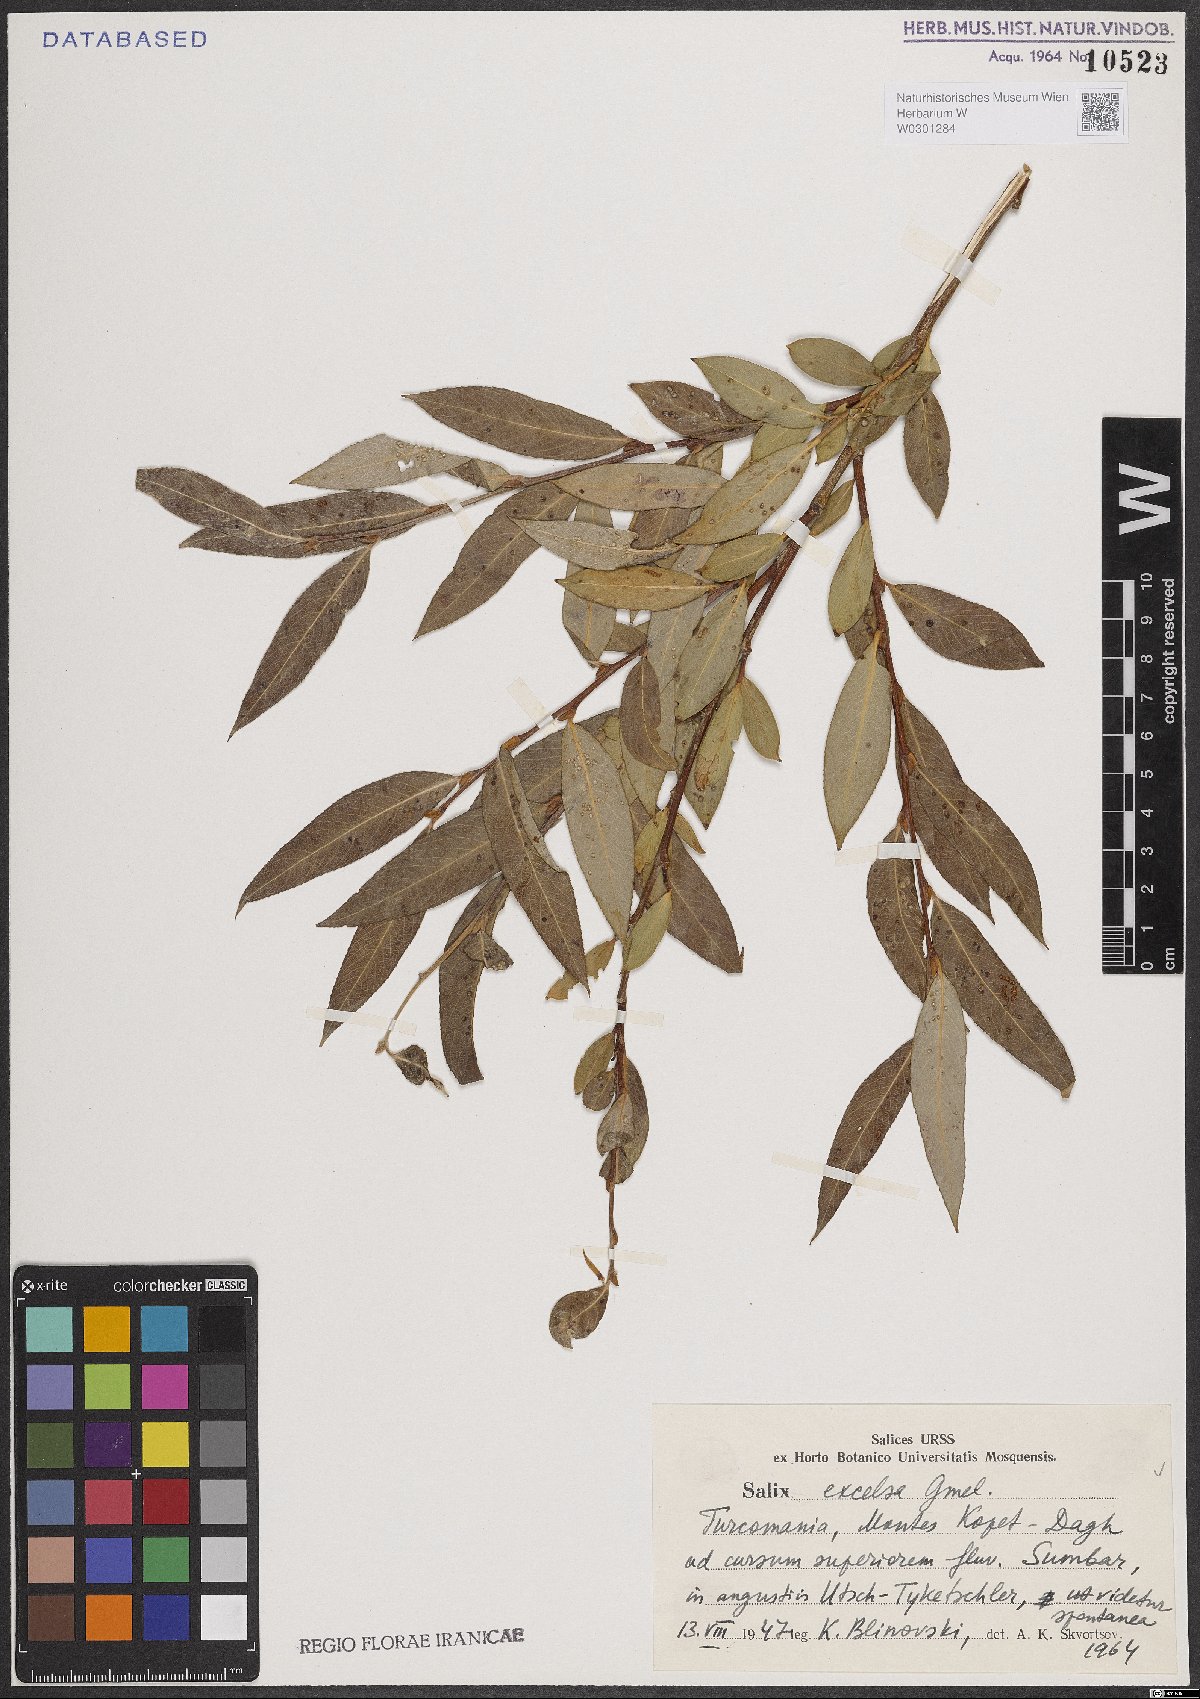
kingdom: Plantae
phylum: Tracheophyta
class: Magnoliopsida
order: Malpighiales
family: Salicaceae
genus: Salix
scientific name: Salix excelsa
